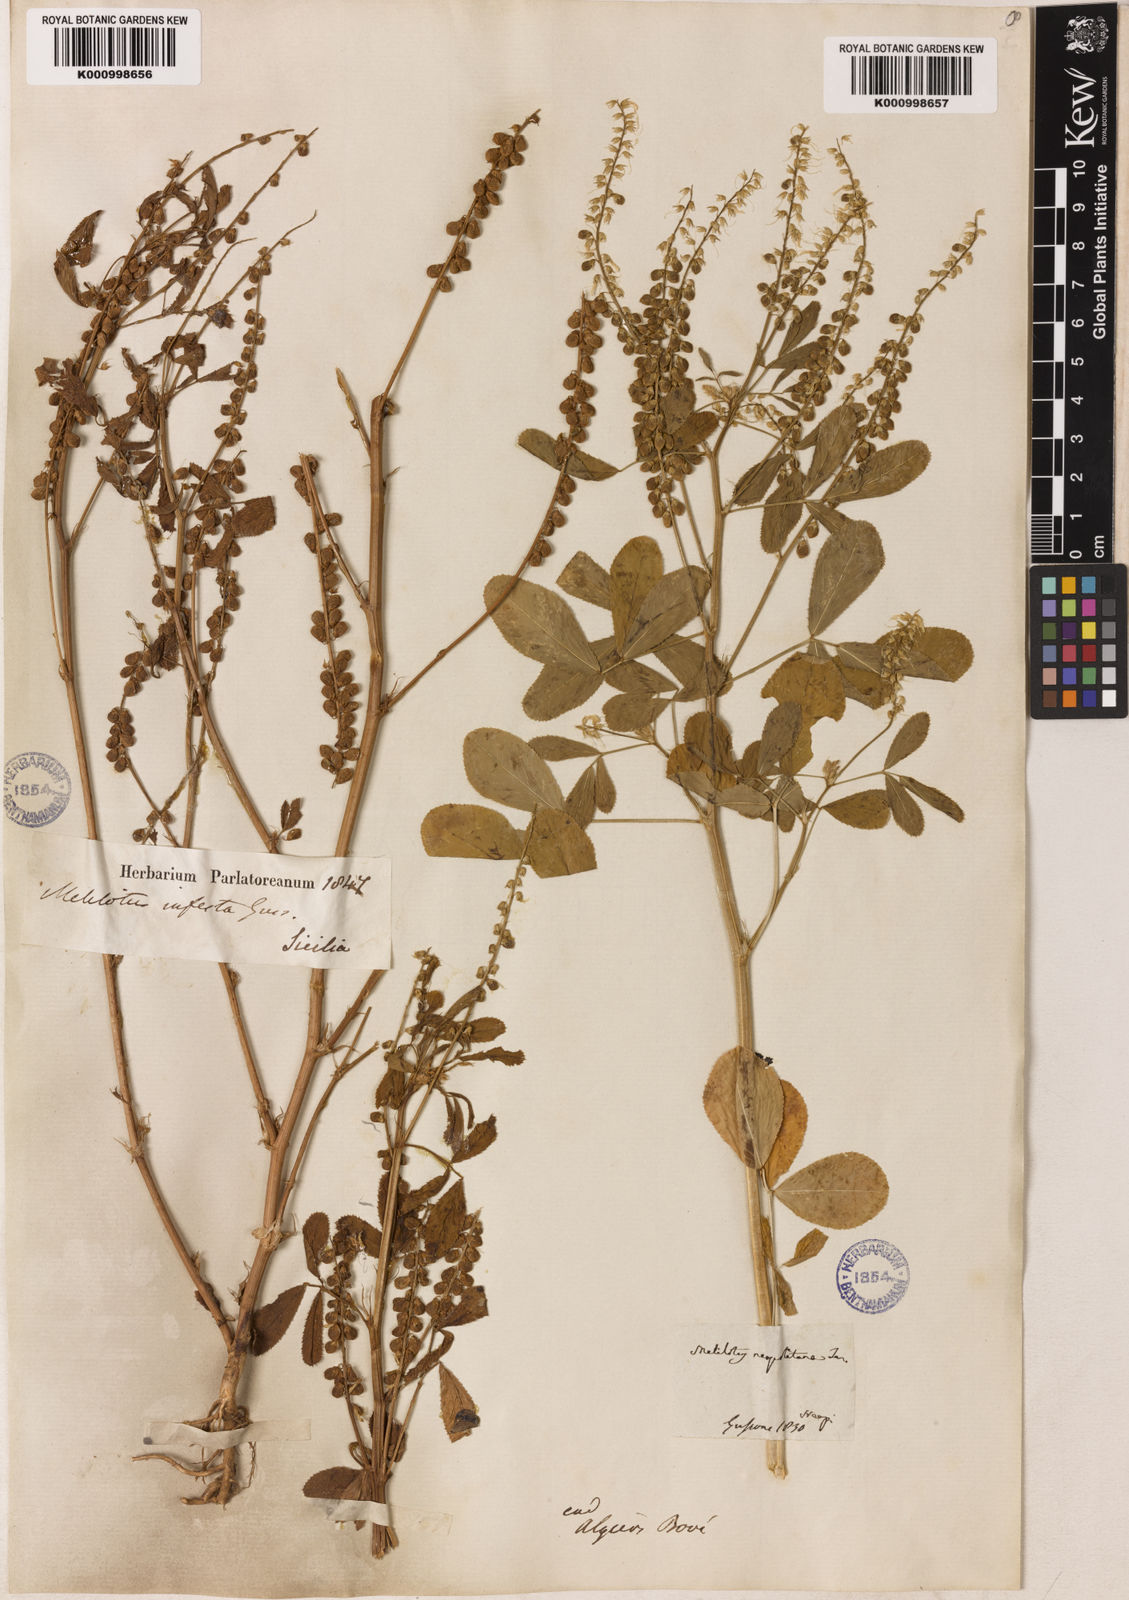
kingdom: Plantae
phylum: Tracheophyta
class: Magnoliopsida
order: Fabales
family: Fabaceae
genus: Melilotus
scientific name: Melilotus infestus
